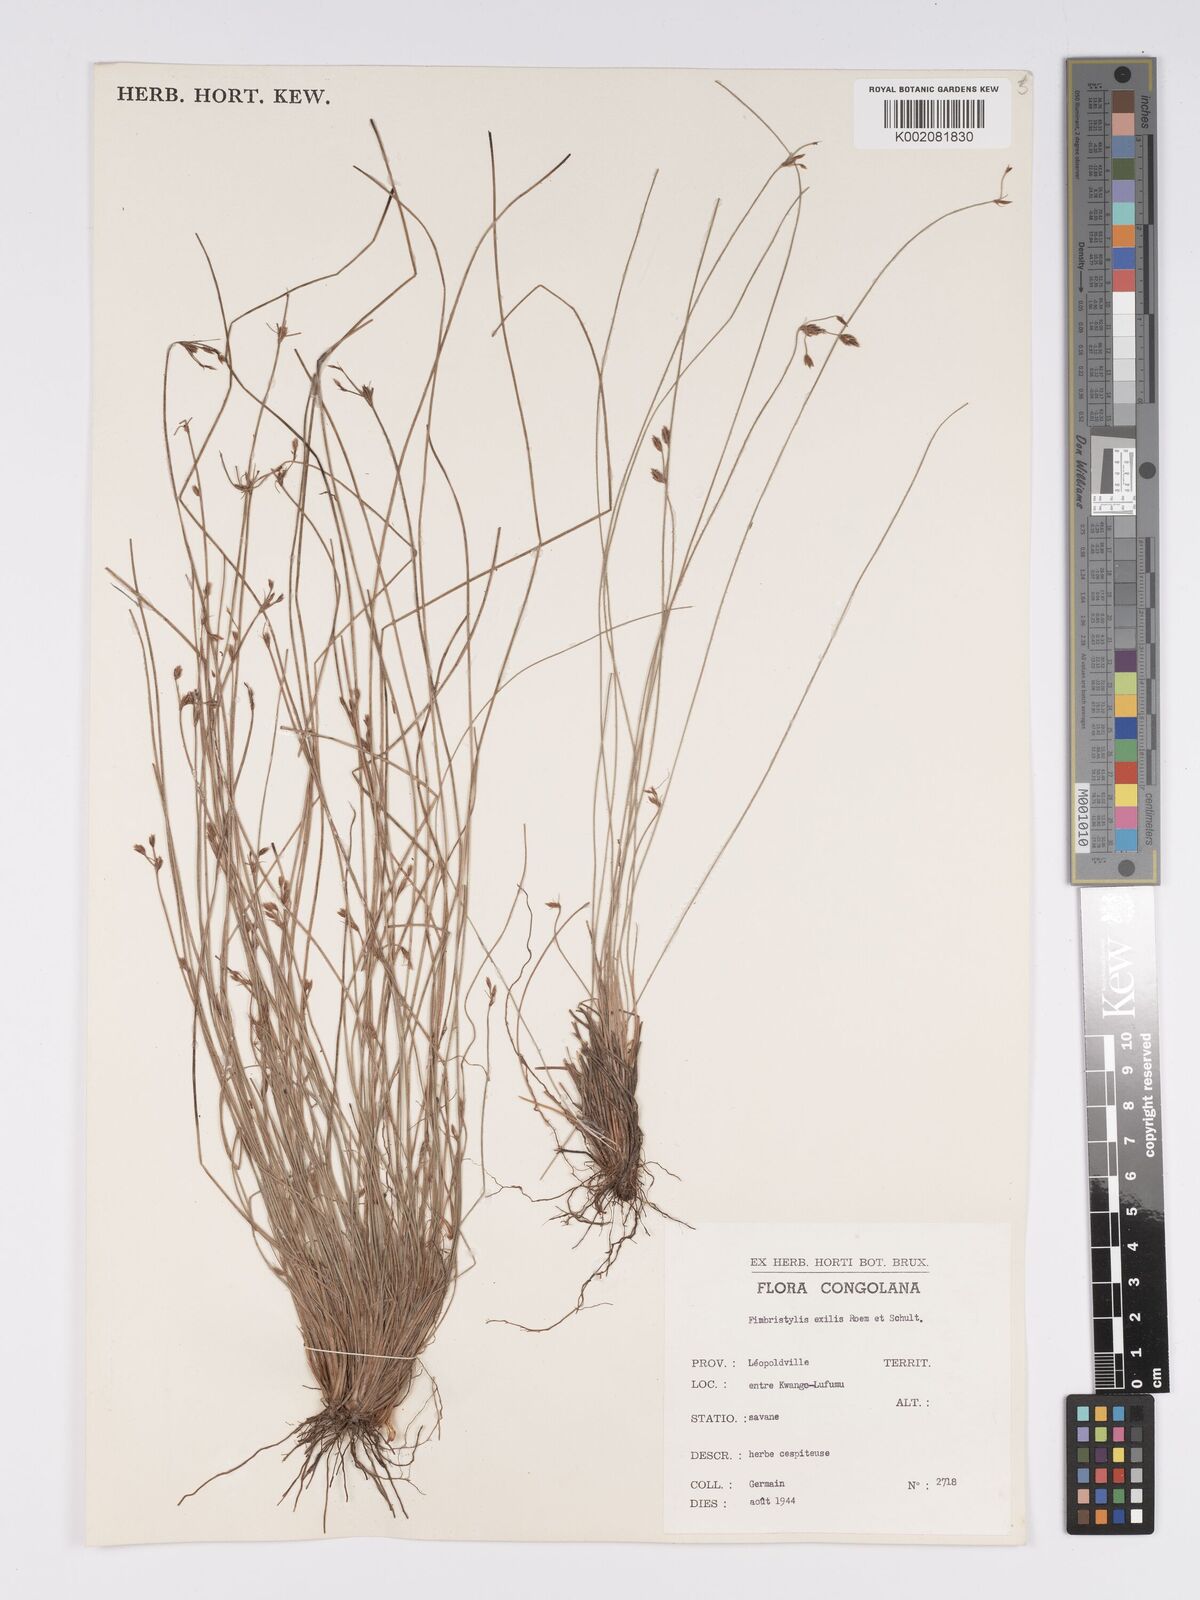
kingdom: Plantae
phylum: Tracheophyta
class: Liliopsida
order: Poales
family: Cyperaceae
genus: Bulbostylis
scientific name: Bulbostylis hispidula
